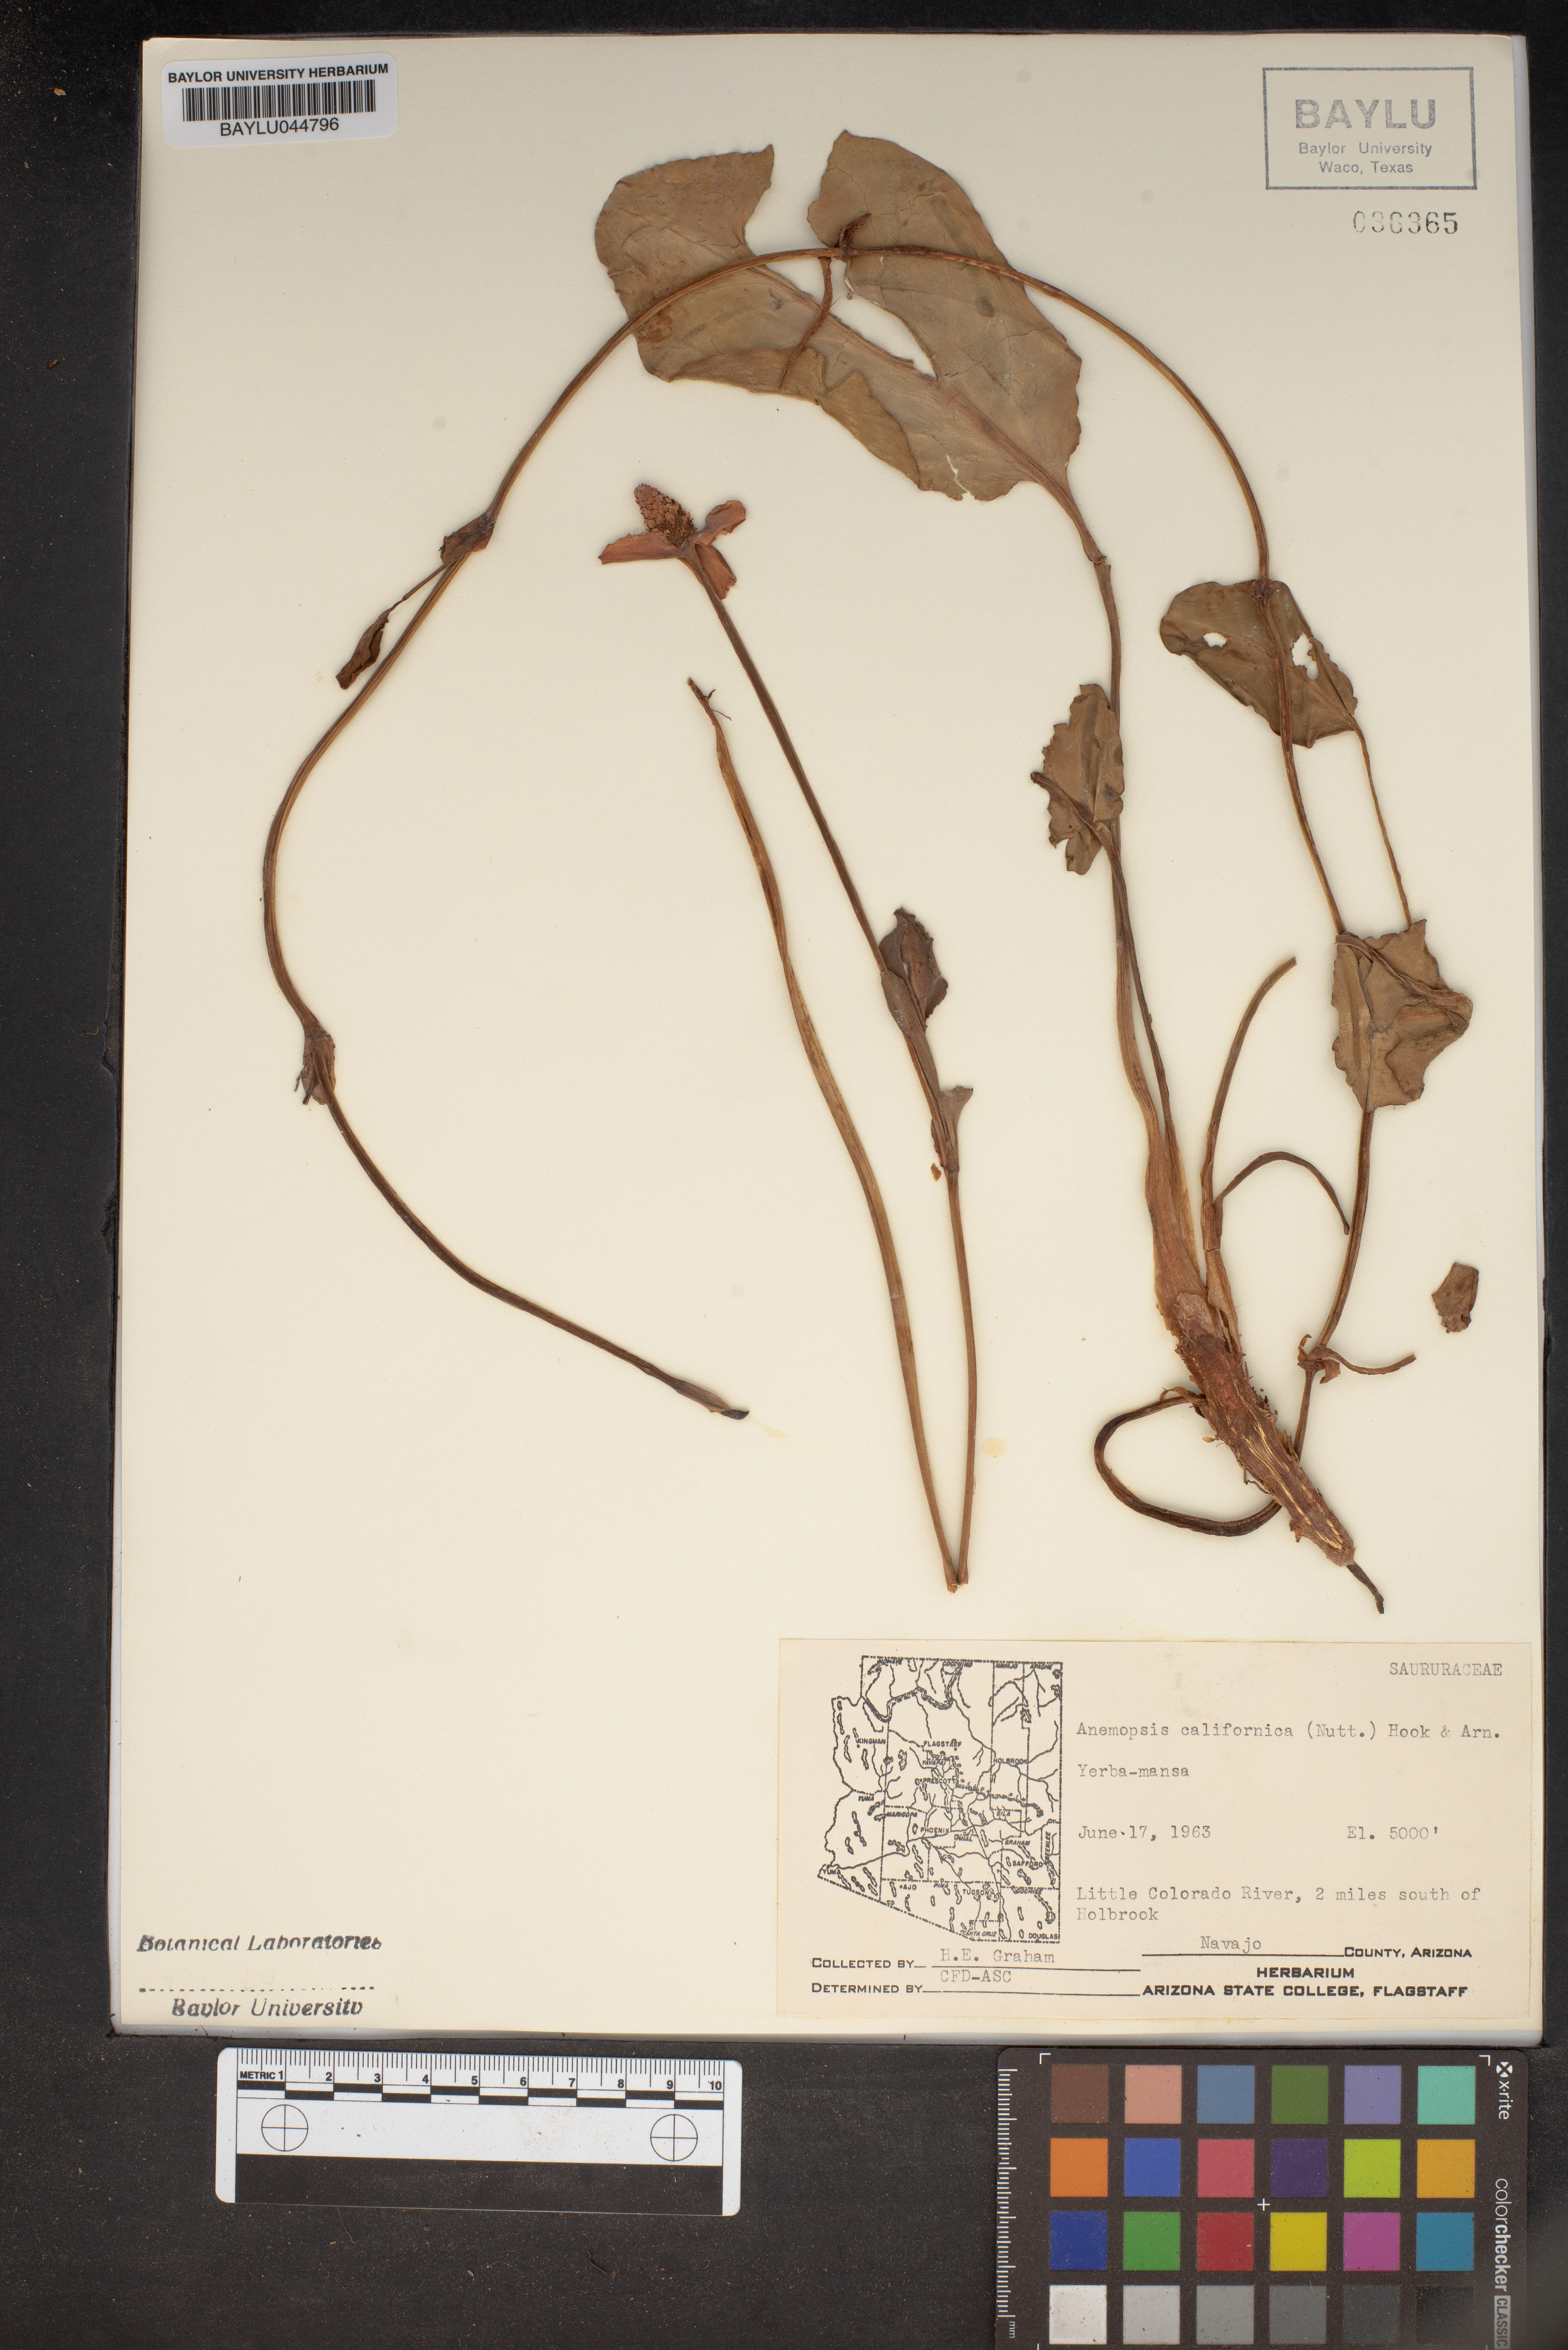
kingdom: Plantae
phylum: Tracheophyta
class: Magnoliopsida
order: Piperales
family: Saururaceae
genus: Anemopsis
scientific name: Anemopsis californica
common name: Apache-beads
